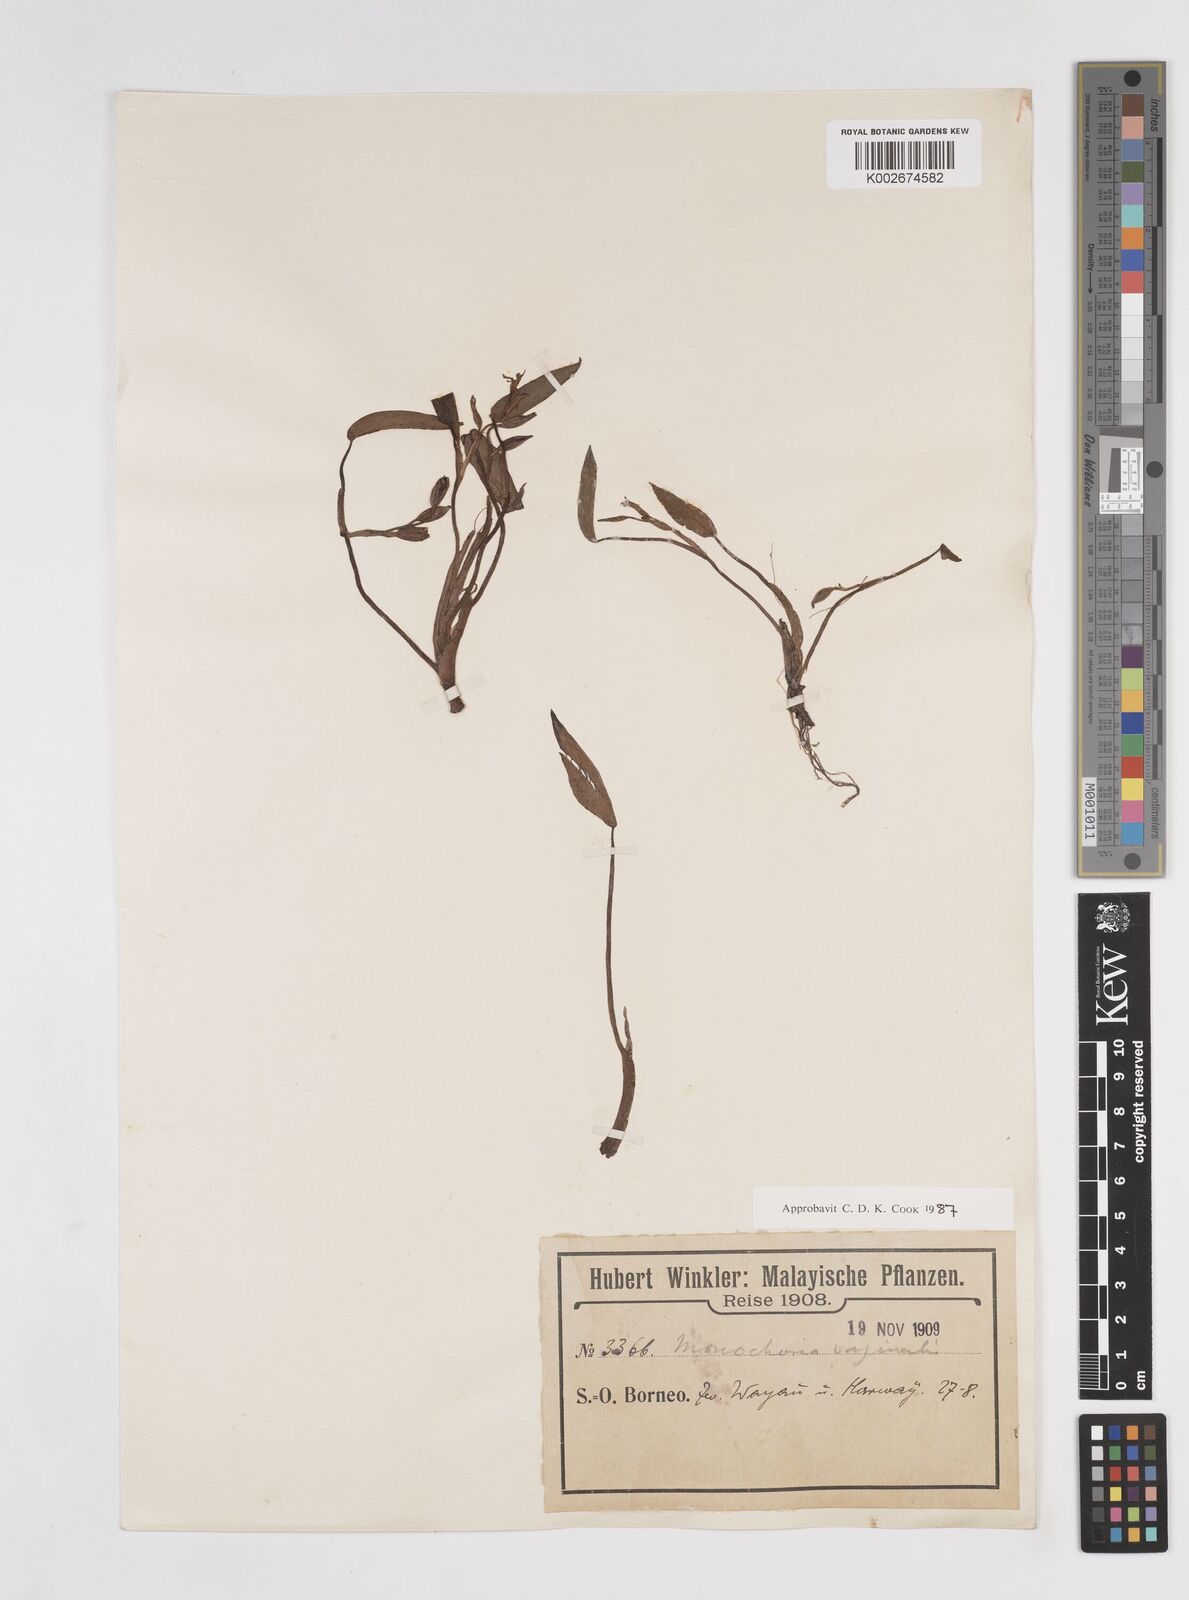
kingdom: Plantae
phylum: Tracheophyta
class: Liliopsida
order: Commelinales
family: Pontederiaceae
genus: Pontederia
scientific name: Pontederia vaginalis
